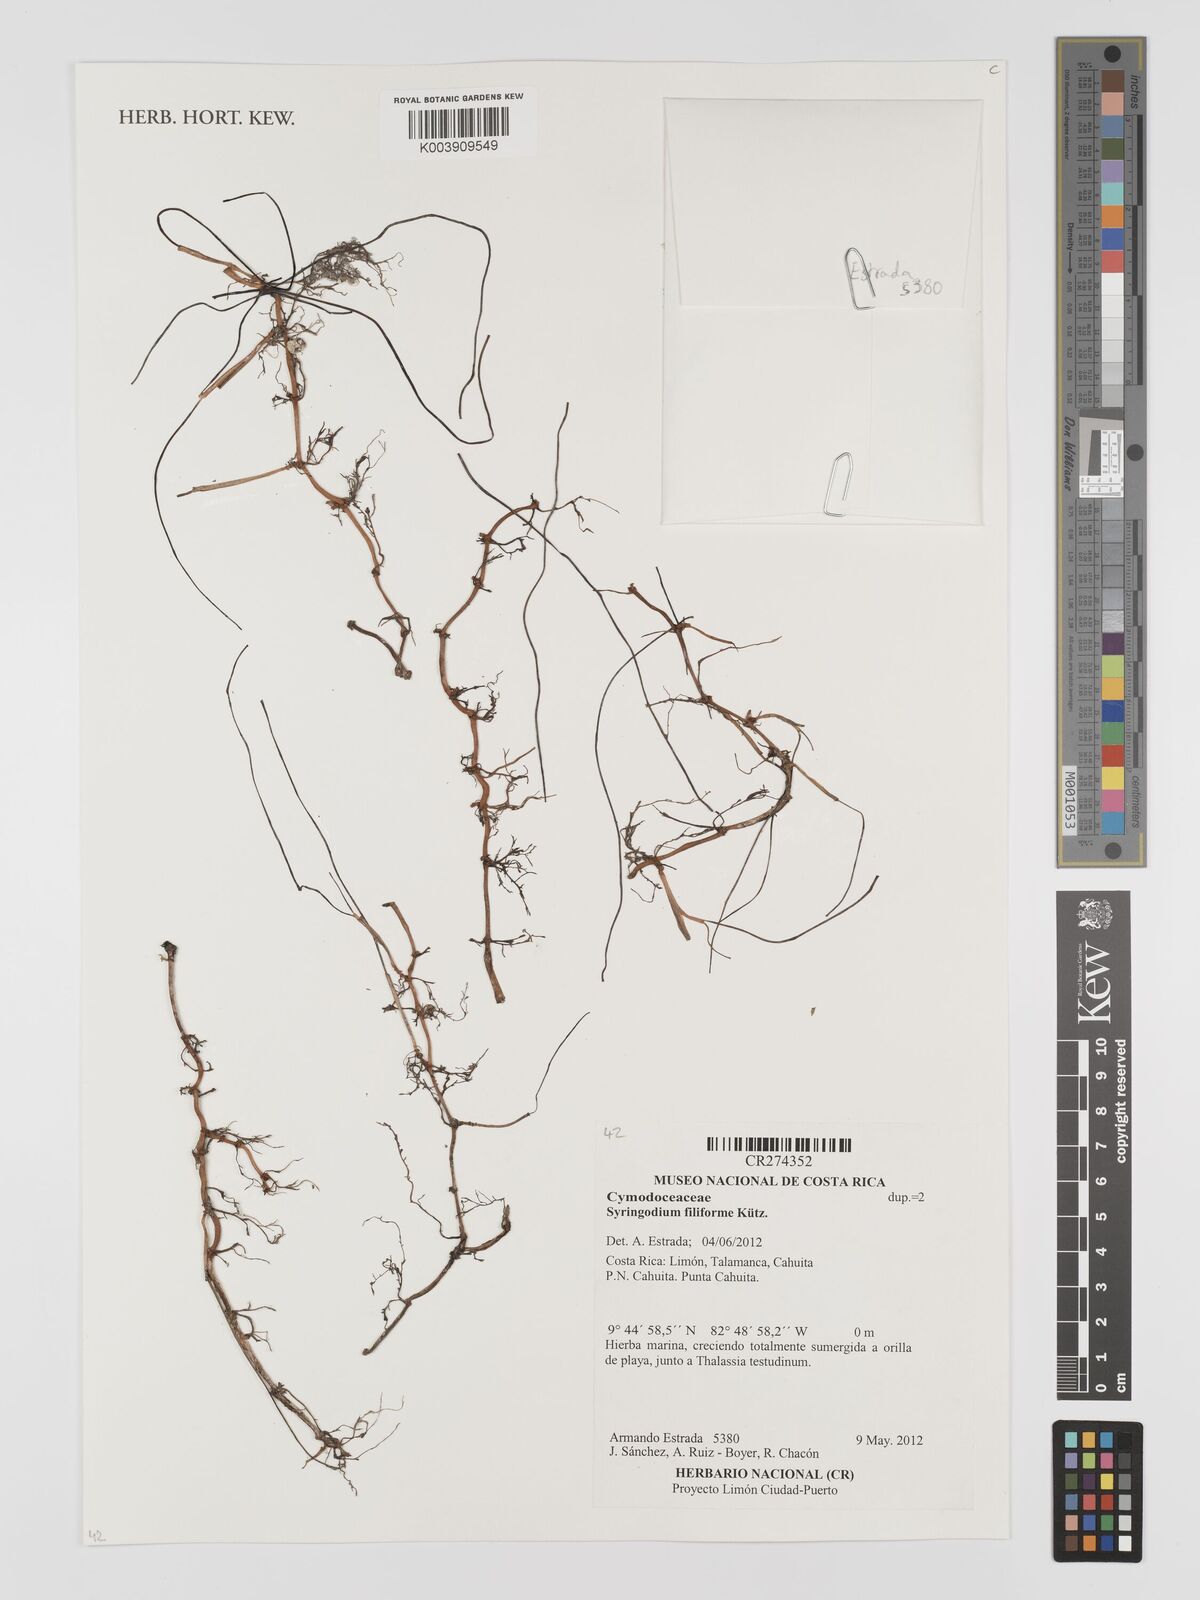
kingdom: Plantae
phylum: Tracheophyta
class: Liliopsida
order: Alismatales
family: Cymodoceaceae
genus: Syringodium
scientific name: Syringodium filiforme
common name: Manatee grass
